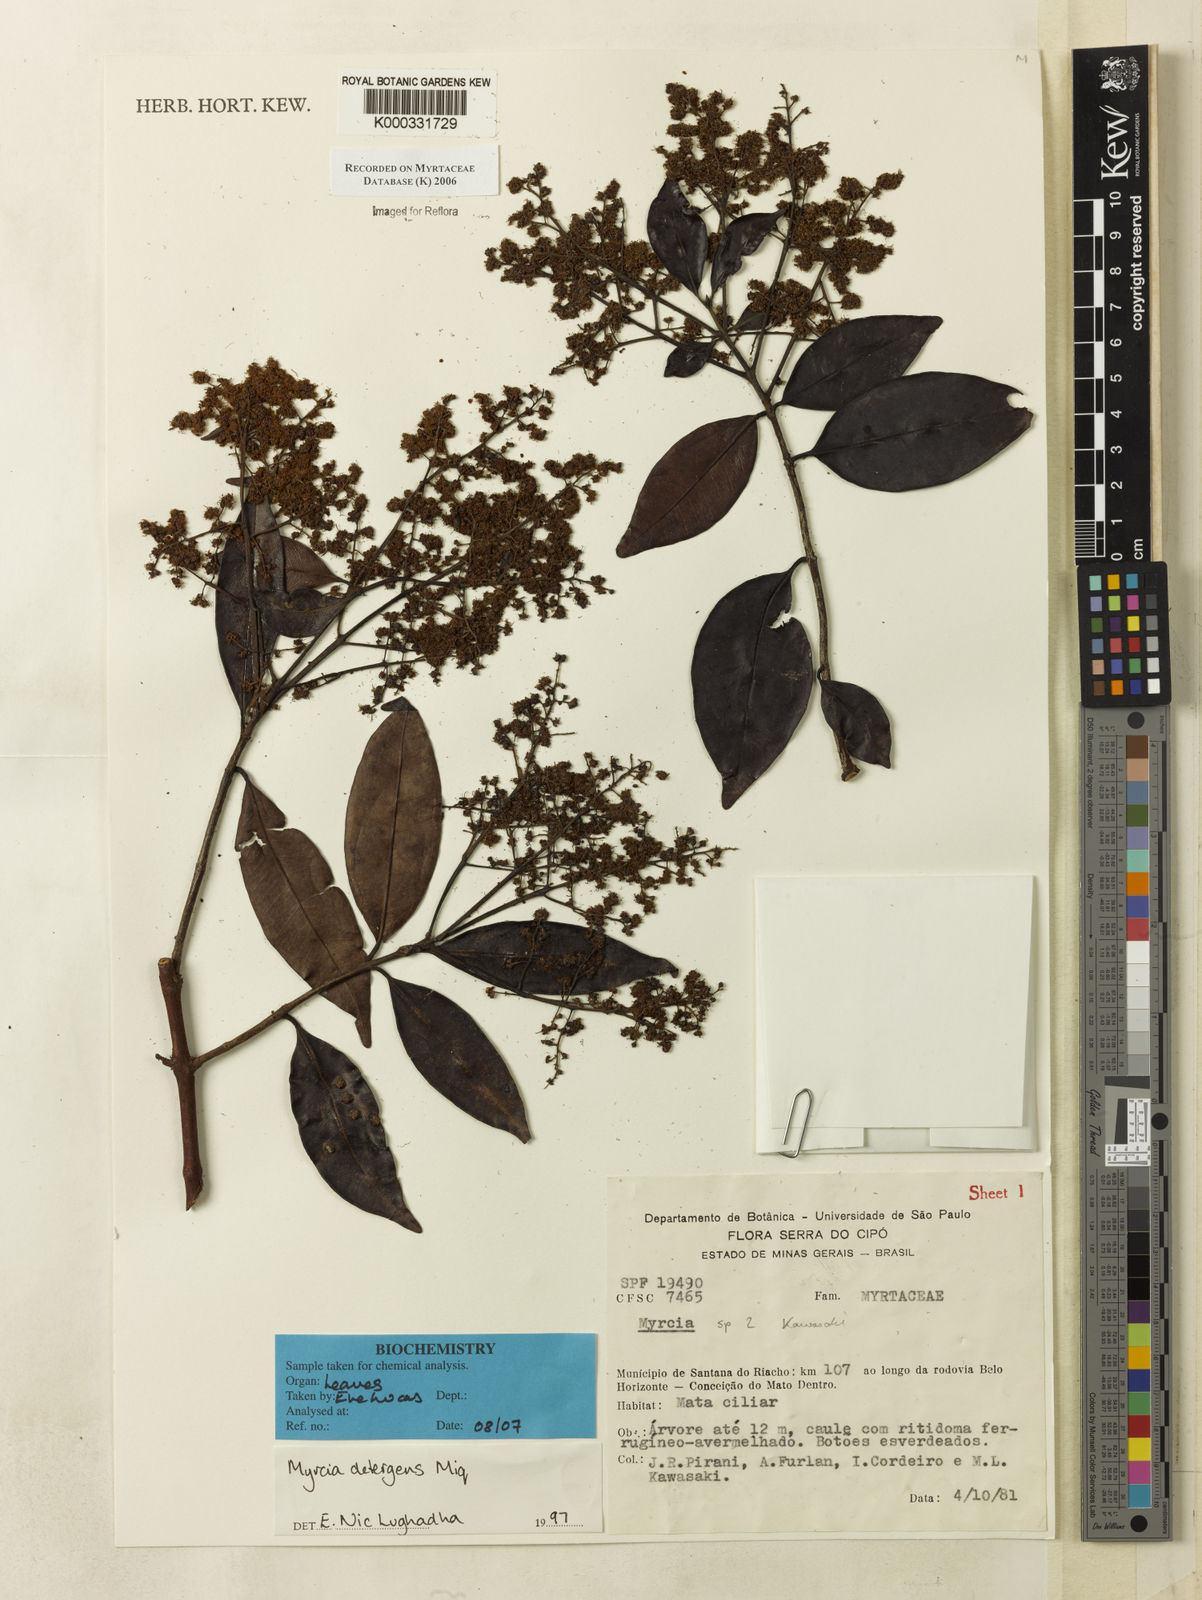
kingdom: Plantae
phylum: Tracheophyta
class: Magnoliopsida
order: Myrtales
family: Myrtaceae
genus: Myrcia
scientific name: Myrcia amazonica
